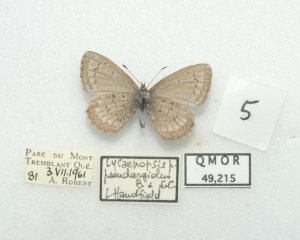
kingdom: Animalia
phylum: Arthropoda
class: Insecta
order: Lepidoptera
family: Lycaenidae
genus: Cyaniris
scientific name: Cyaniris neglecta
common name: Summer Azure
